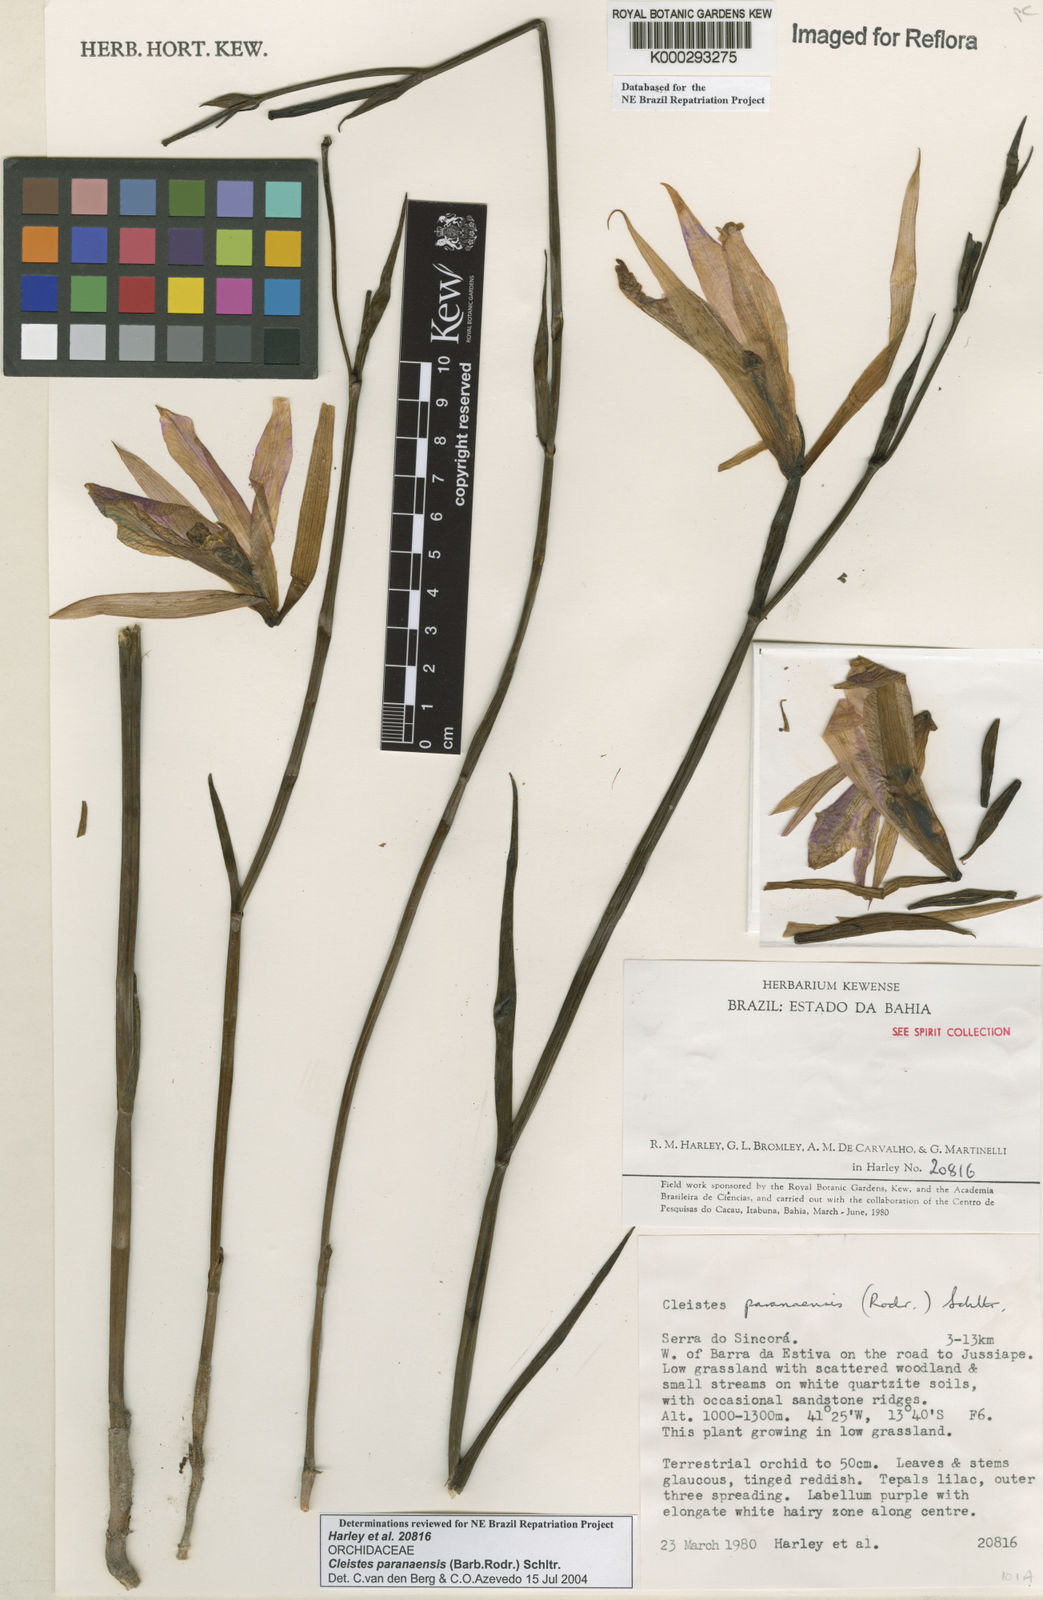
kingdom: Plantae
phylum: Tracheophyta
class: Liliopsida
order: Asparagales
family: Orchidaceae
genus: Cleistes
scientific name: Cleistes paranaensis
